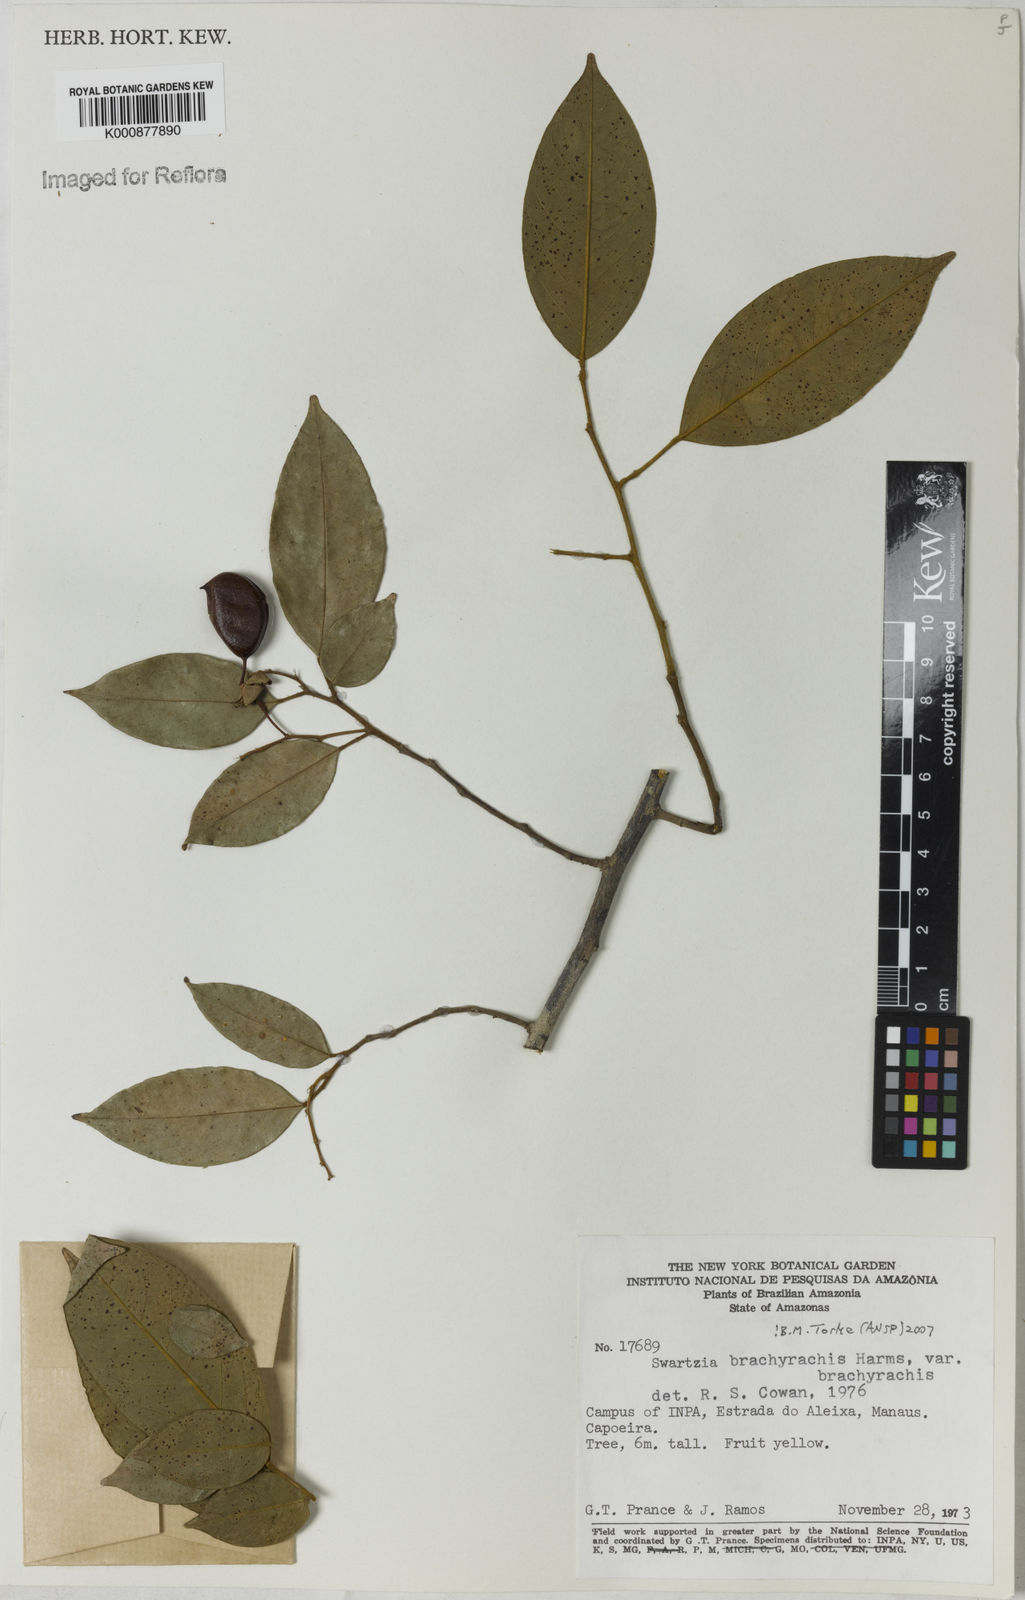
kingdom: Plantae
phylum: Tracheophyta
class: Magnoliopsida
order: Fabales
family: Fabaceae
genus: Swartzia
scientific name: Swartzia
